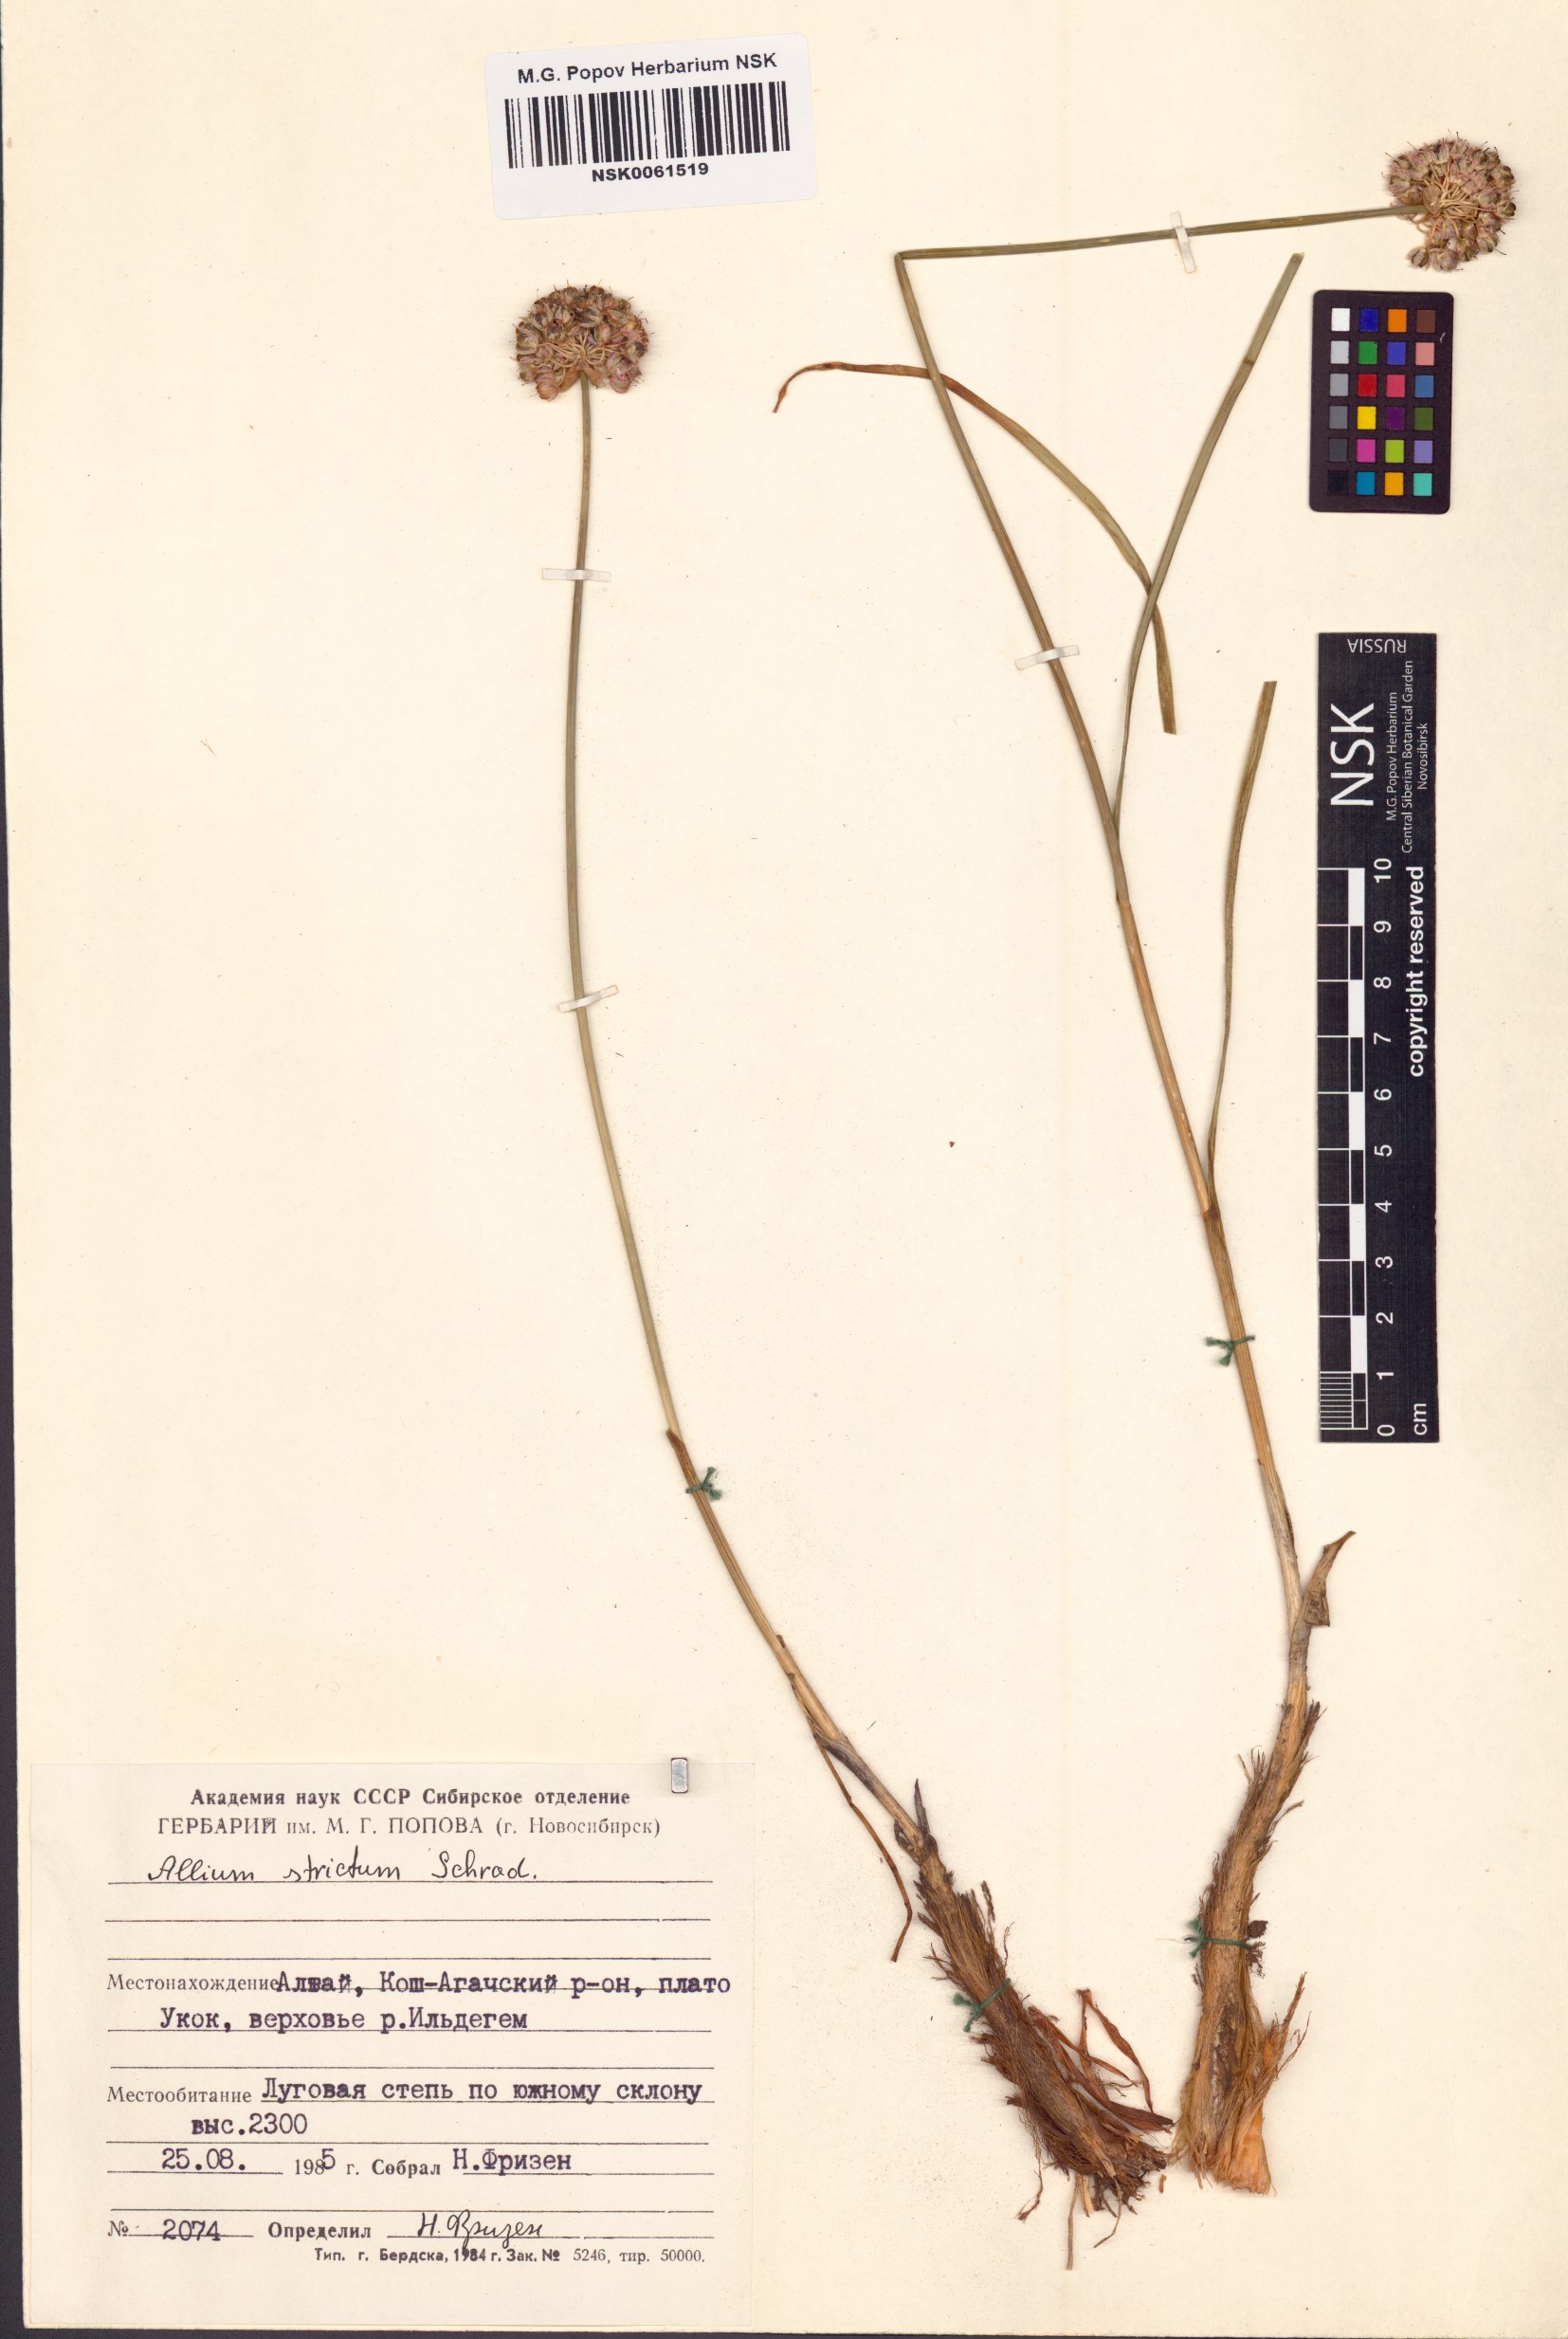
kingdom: Plantae
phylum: Tracheophyta
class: Liliopsida
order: Asparagales
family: Amaryllidaceae
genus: Allium
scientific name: Allium strictum
